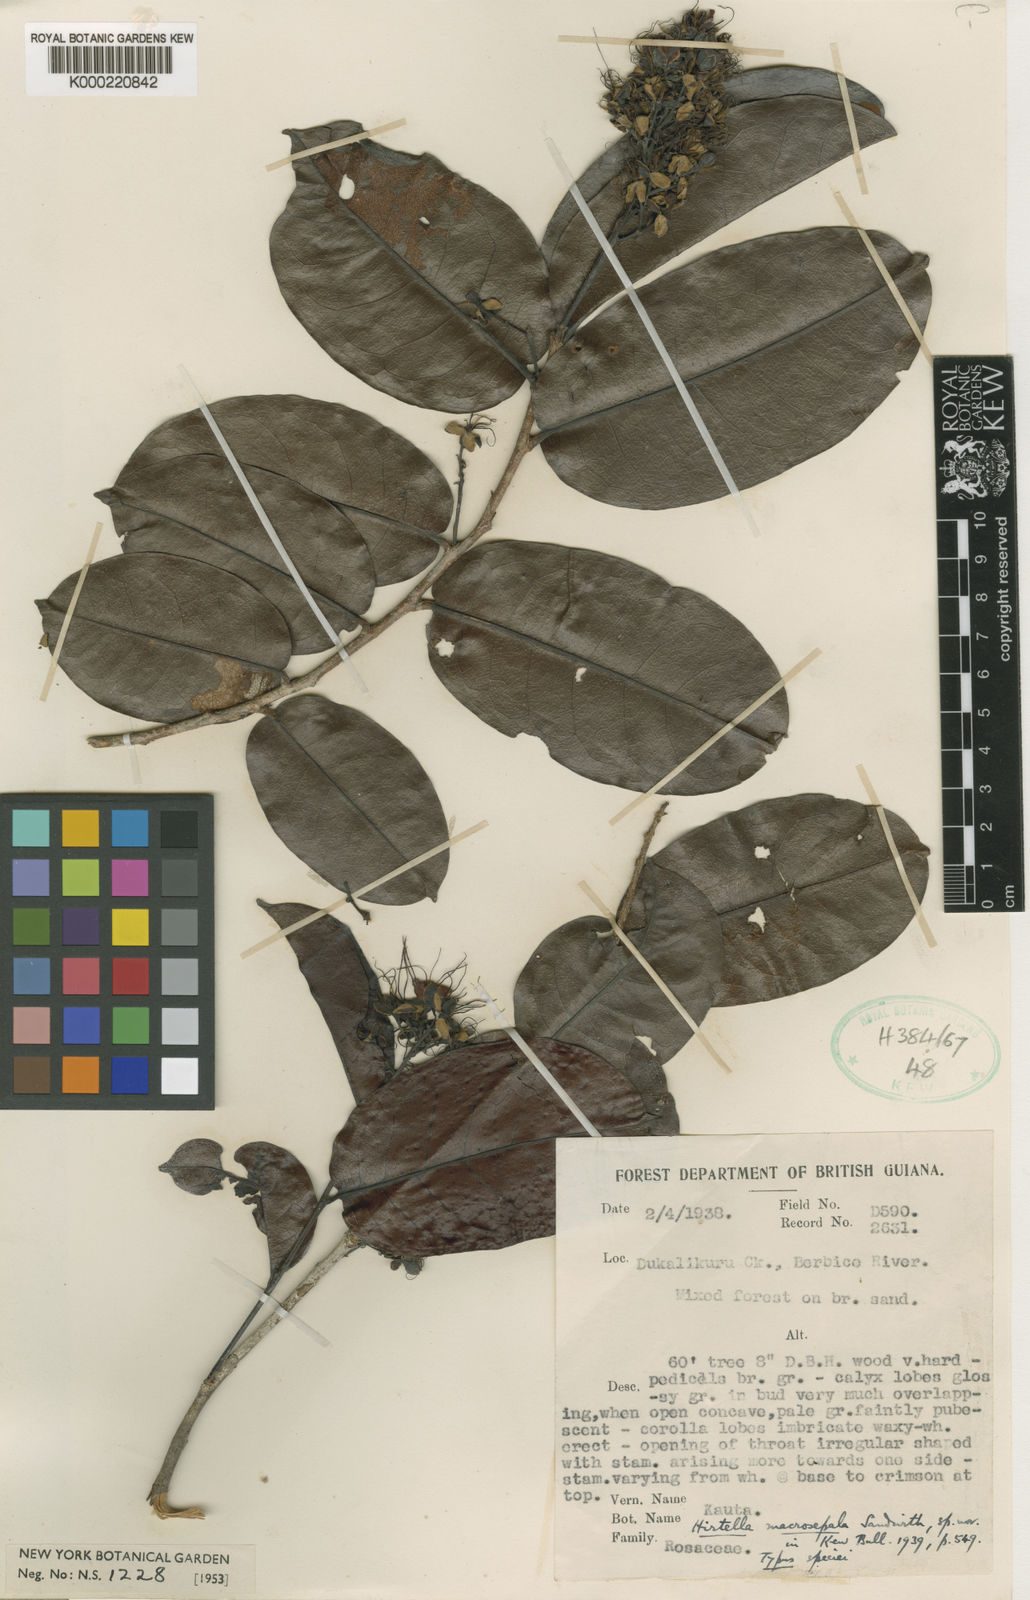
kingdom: Plantae
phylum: Tracheophyta
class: Magnoliopsida
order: Malpighiales
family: Chrysobalanaceae
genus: Hirtella
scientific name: Hirtella macrosepala
